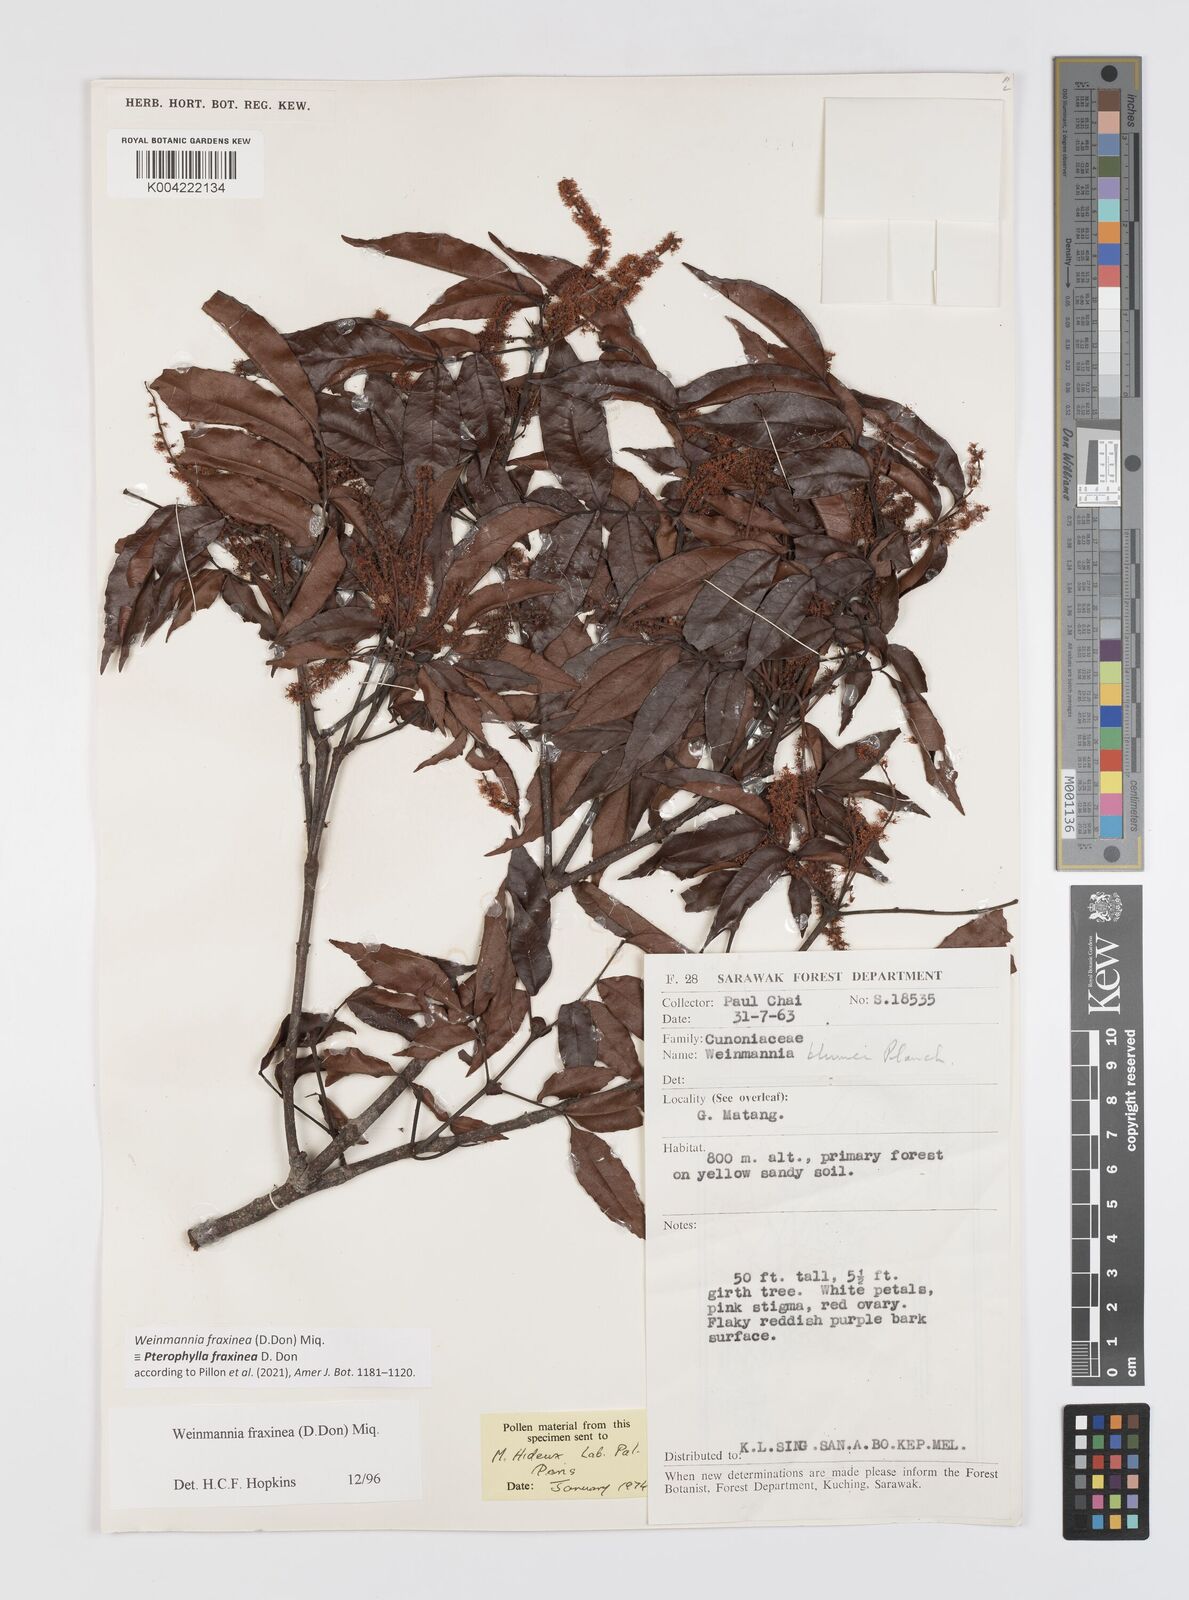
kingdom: Plantae
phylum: Tracheophyta
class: Magnoliopsida
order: Oxalidales
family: Cunoniaceae
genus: Pterophylla
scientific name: Pterophylla fraxinea
